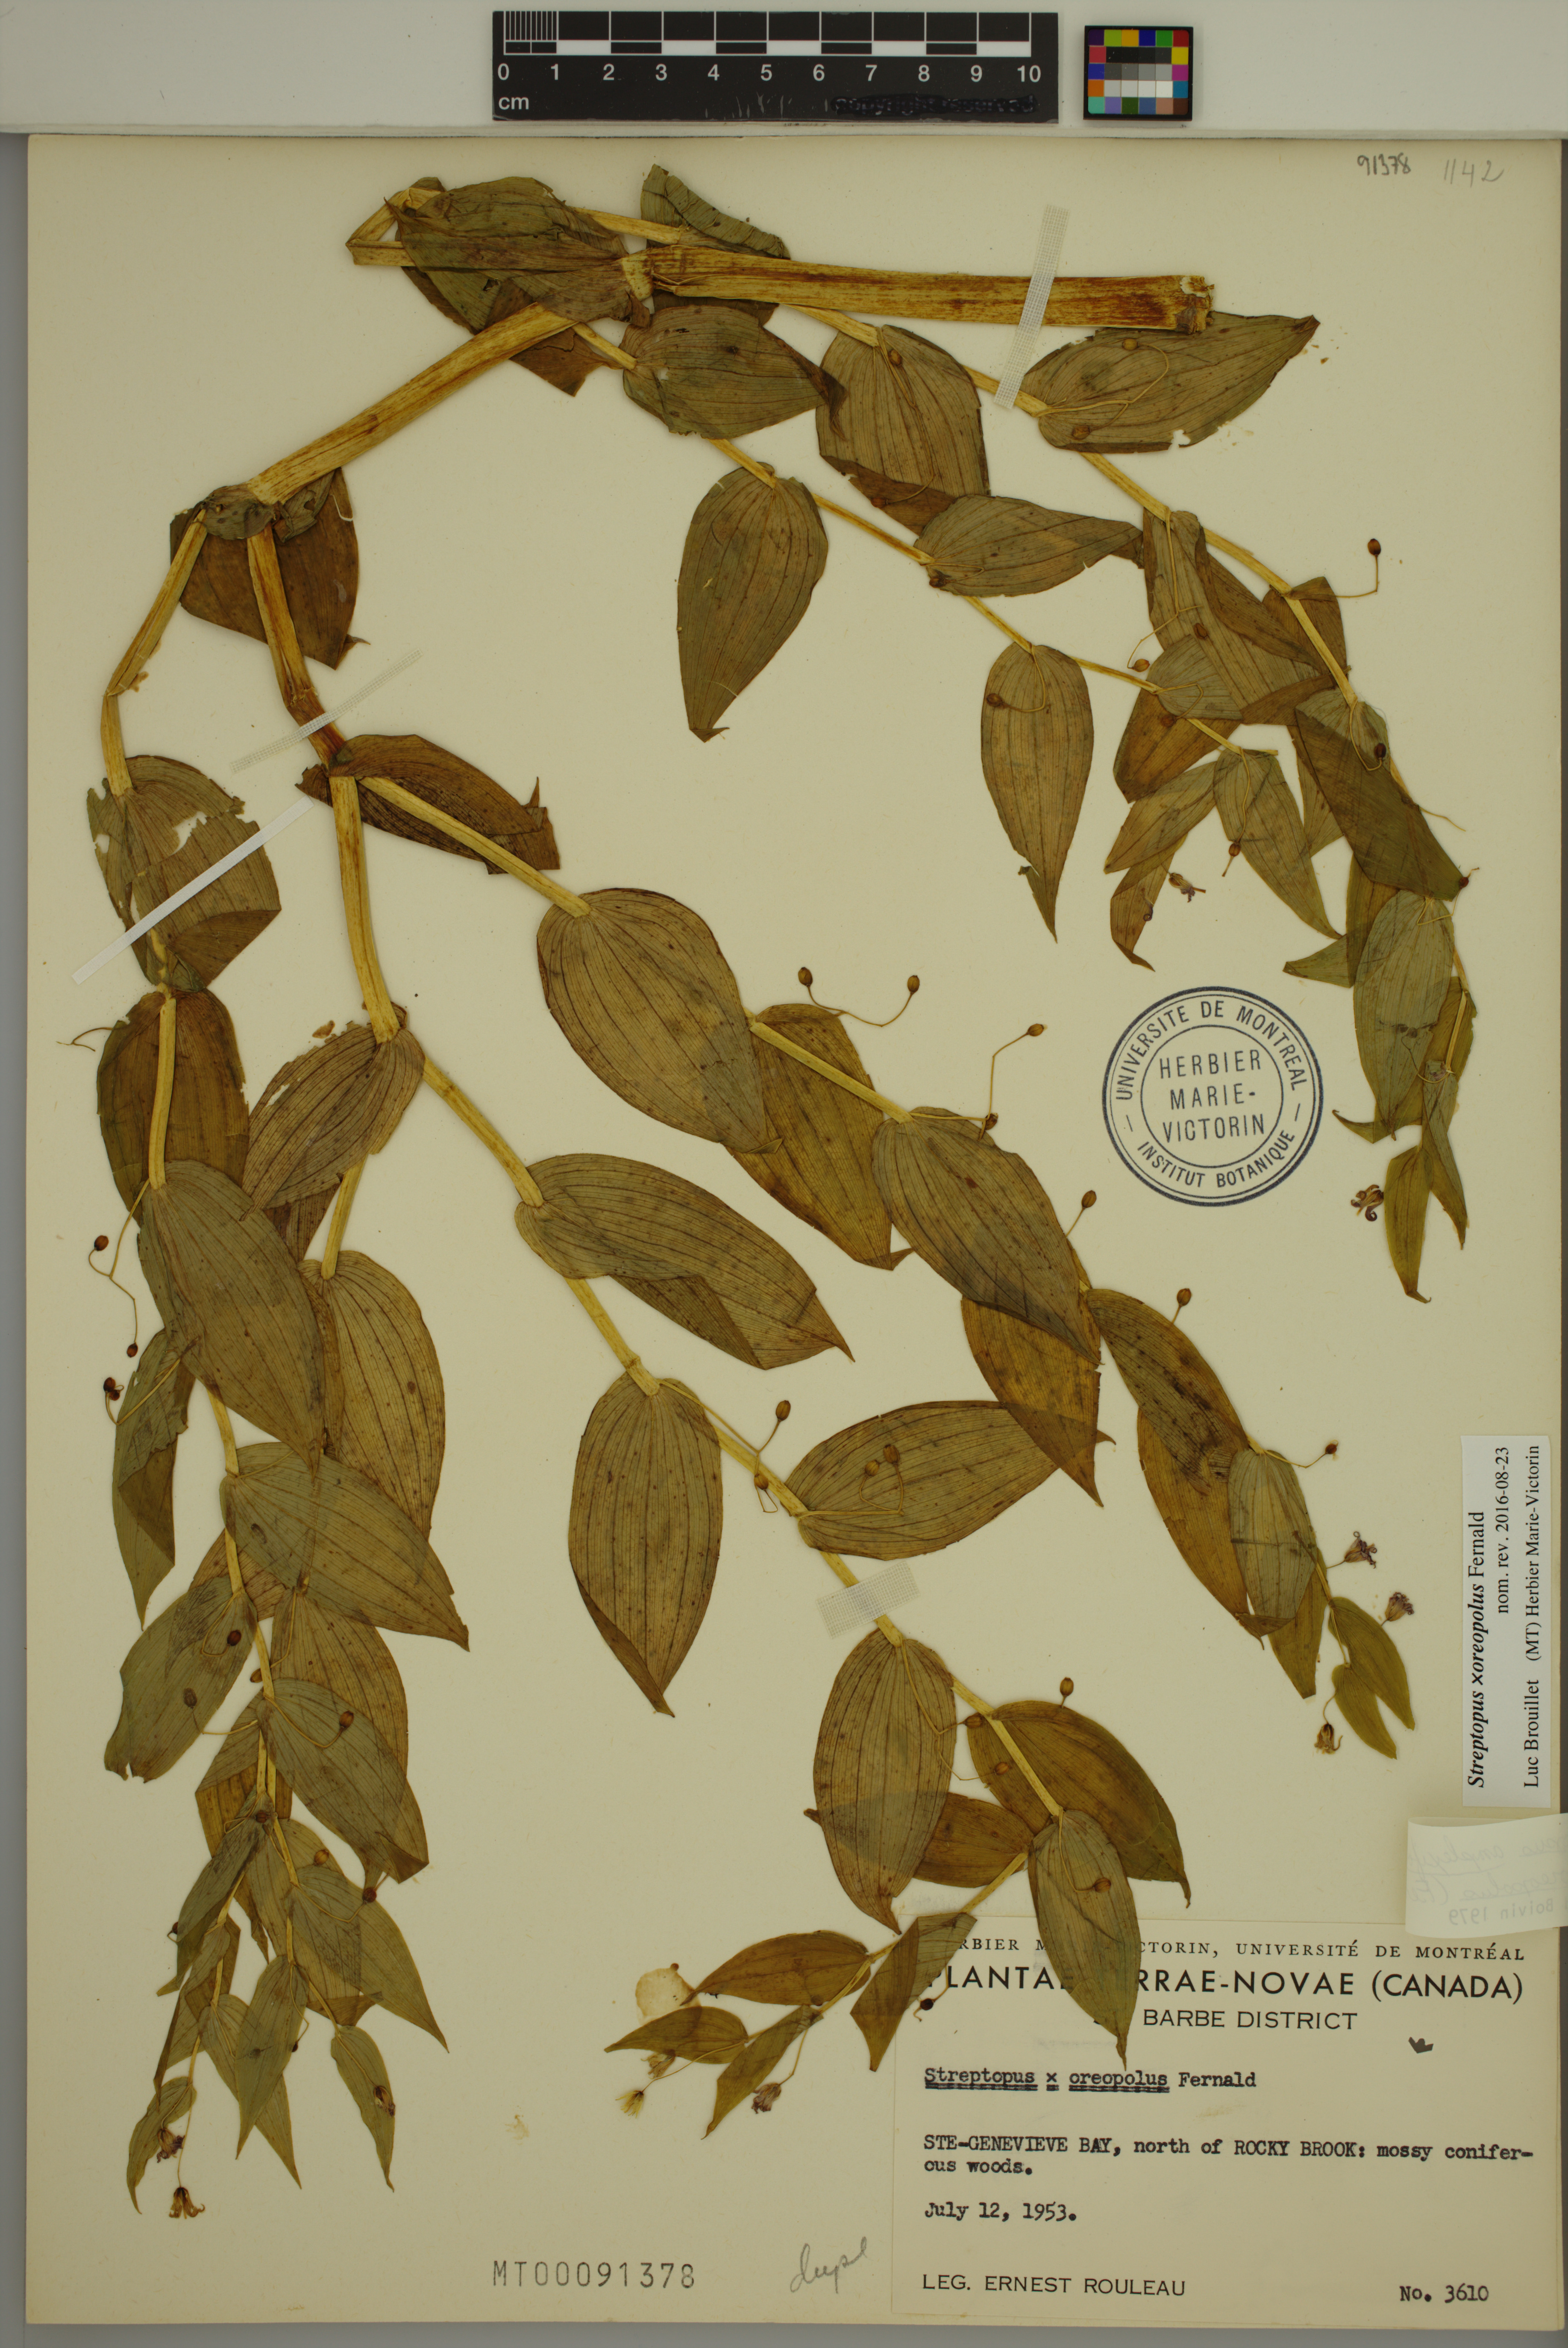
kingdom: Plantae
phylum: Tracheophyta
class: Liliopsida
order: Liliales
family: Liliaceae
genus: Streptopus
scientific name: Streptopus oreopolus
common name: Hybrid twisted-stalk
